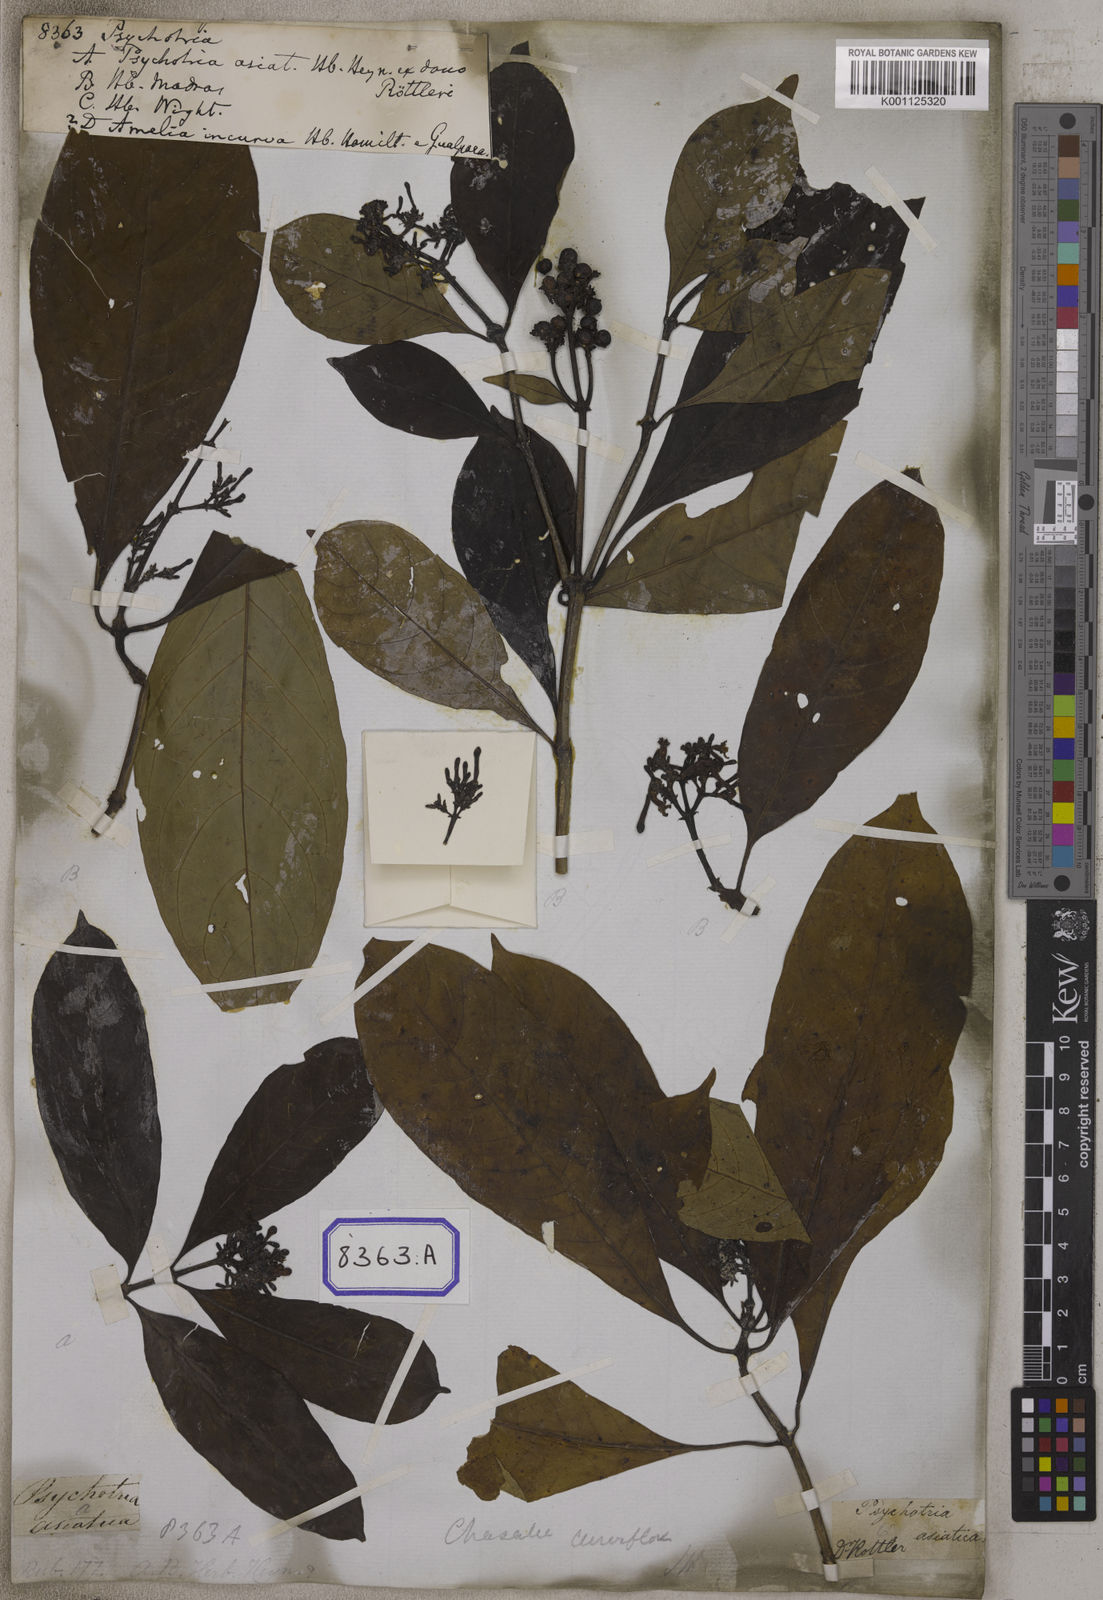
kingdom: Plantae
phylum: Tracheophyta
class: Magnoliopsida
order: Gentianales
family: Rubiaceae
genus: Psychotria
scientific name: Psychotria
